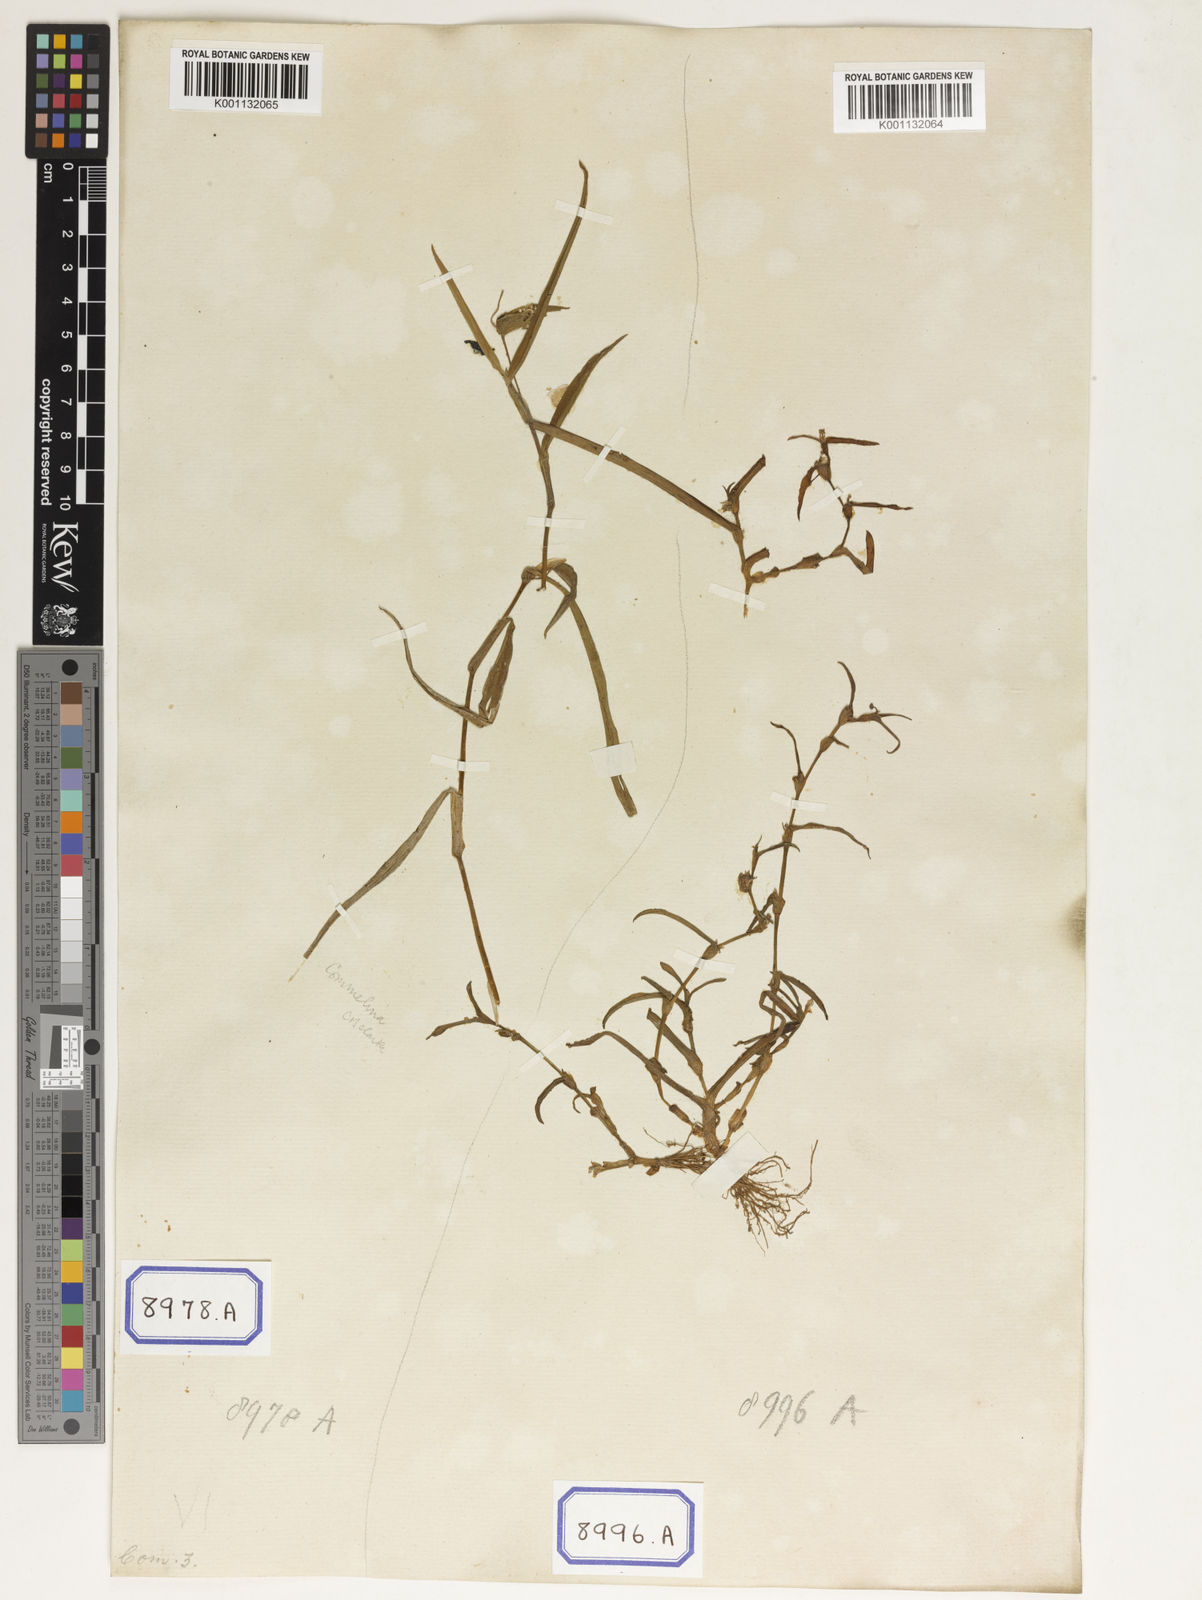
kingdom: Plantae
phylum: Tracheophyta
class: Liliopsida
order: Commelinales
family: Commelinaceae
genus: Cyanotis
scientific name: Cyanotis
